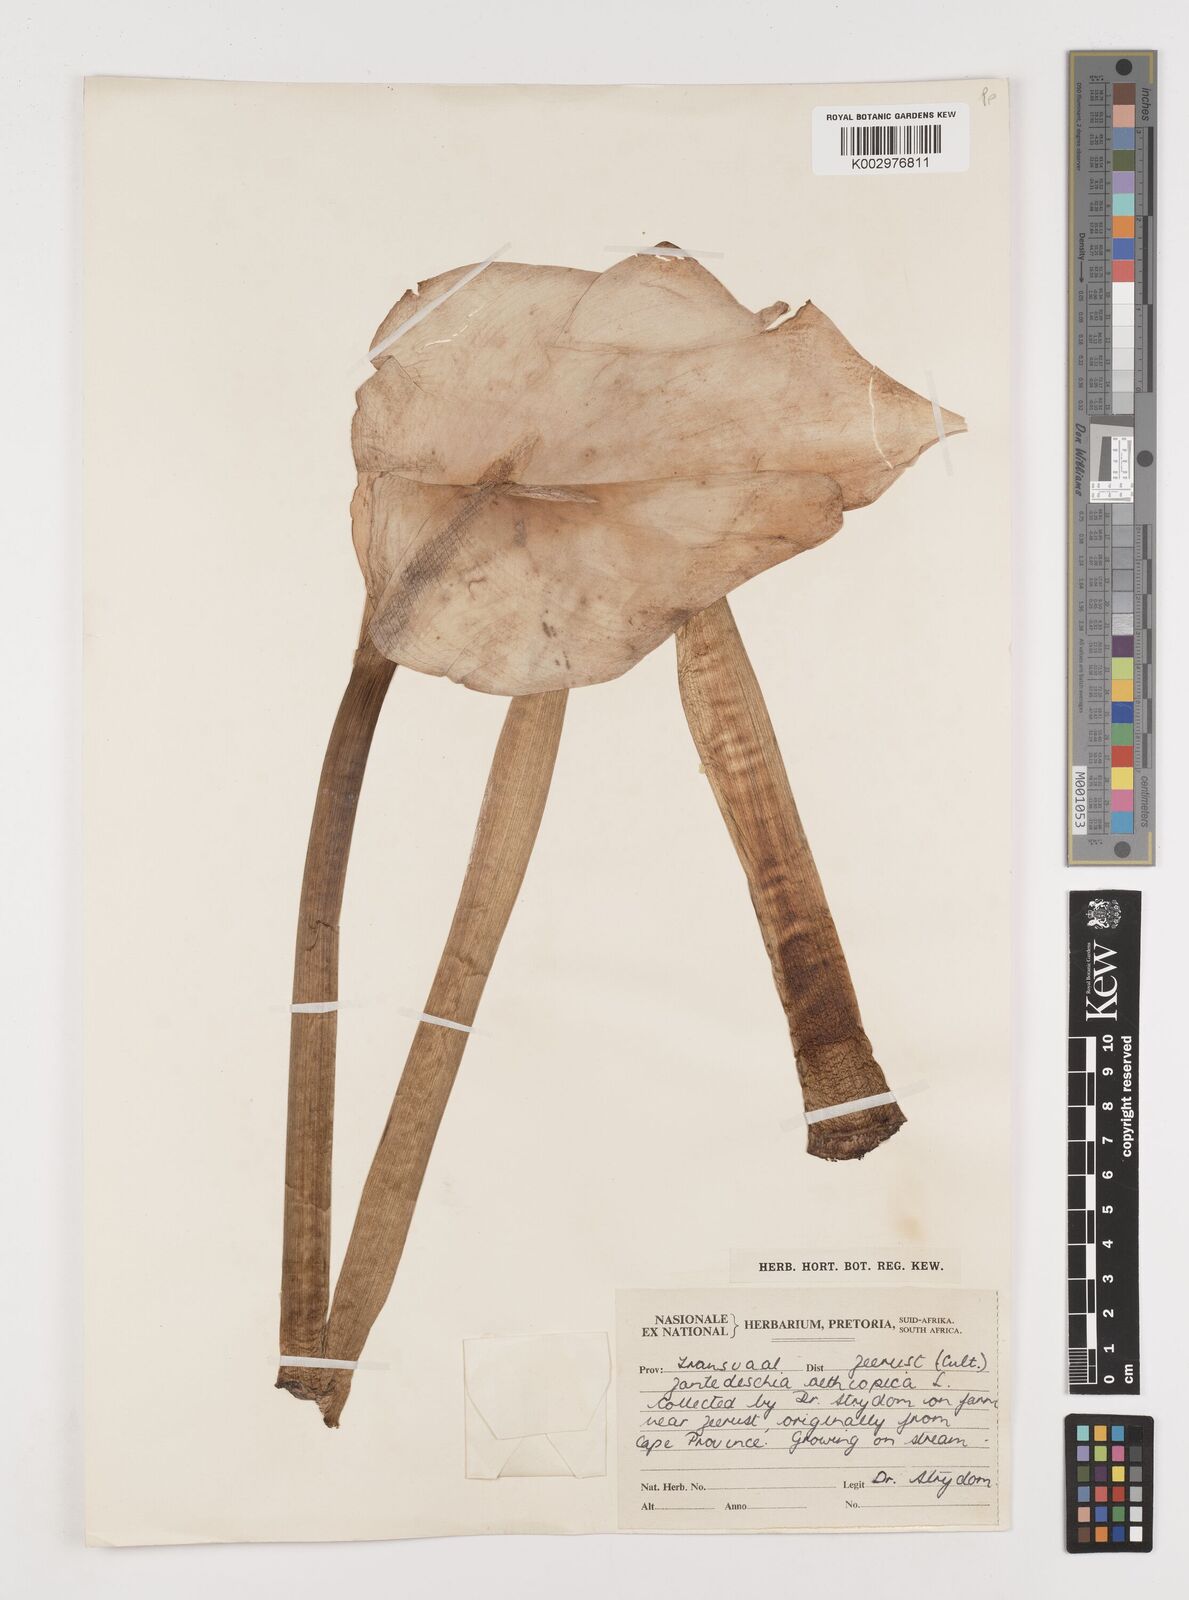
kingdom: Plantae
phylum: Tracheophyta
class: Liliopsida
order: Alismatales
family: Araceae
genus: Zantedeschia
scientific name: Zantedeschia aethiopica
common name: Altar-lily
